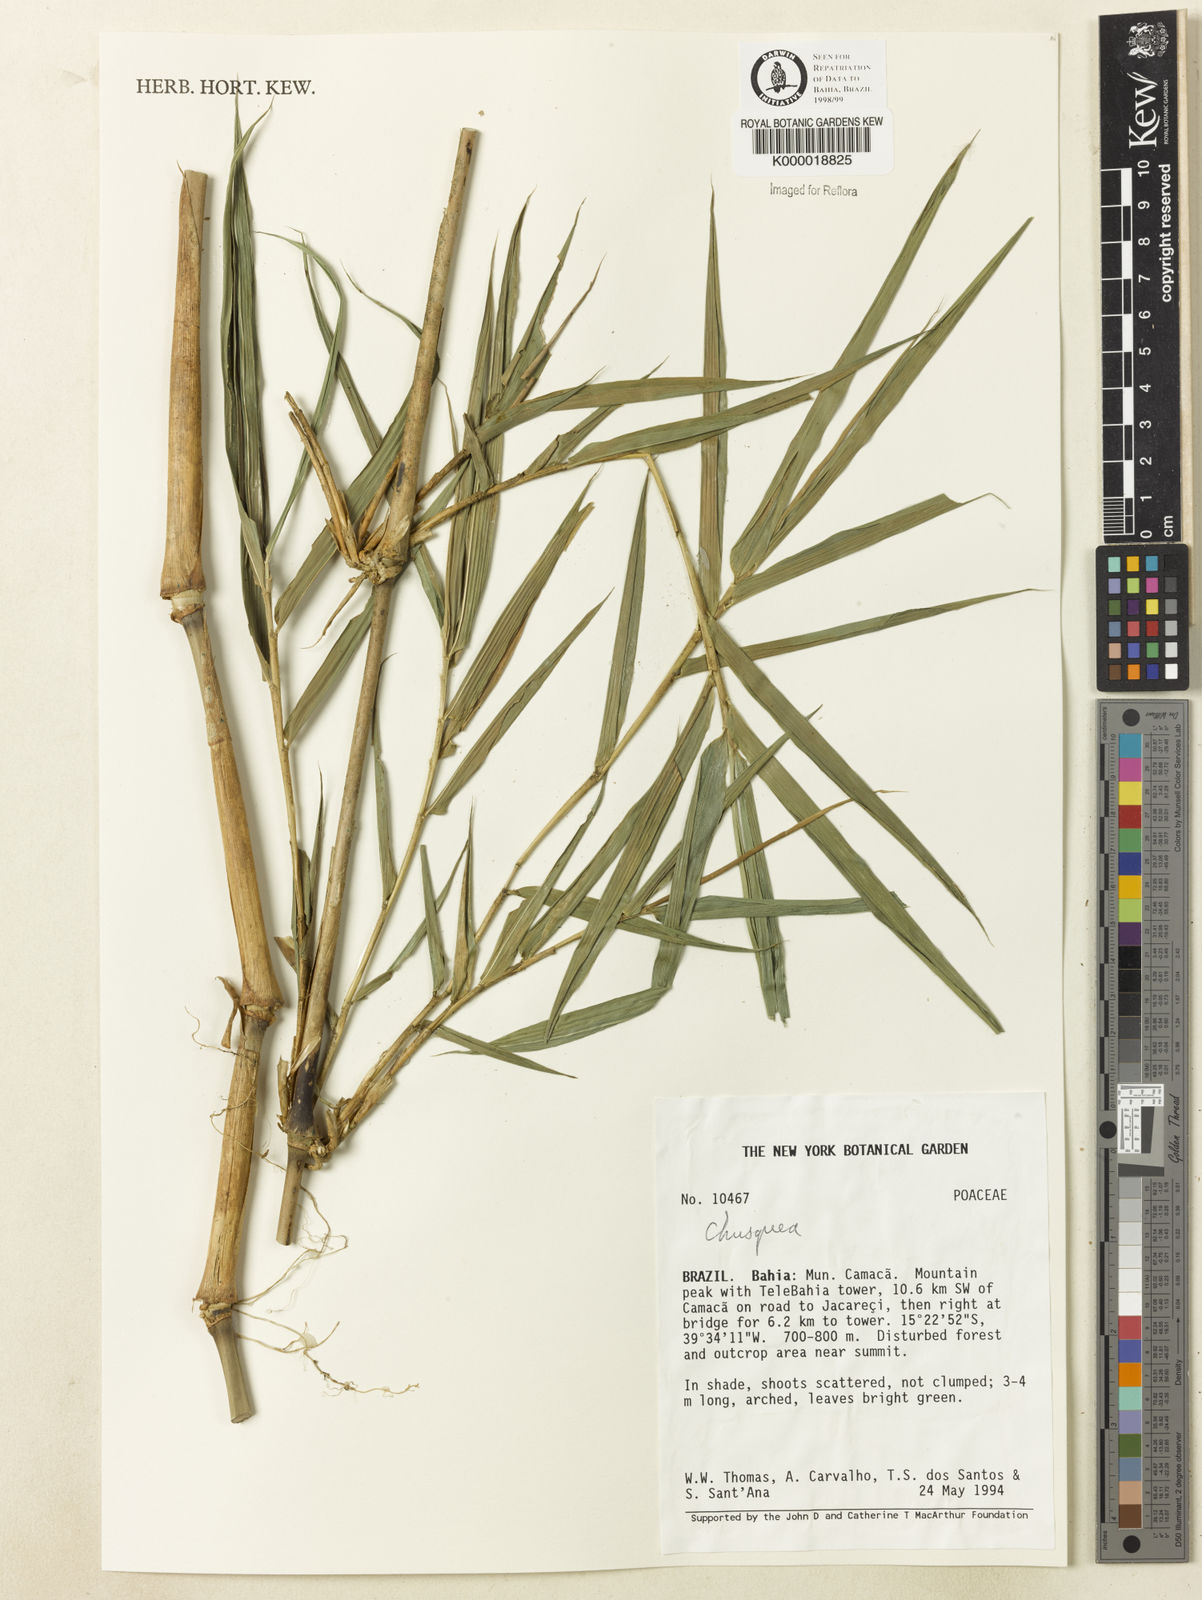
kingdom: Plantae
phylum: Tracheophyta
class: Liliopsida
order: Poales
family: Poaceae
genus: Chusquea
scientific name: Chusquea
